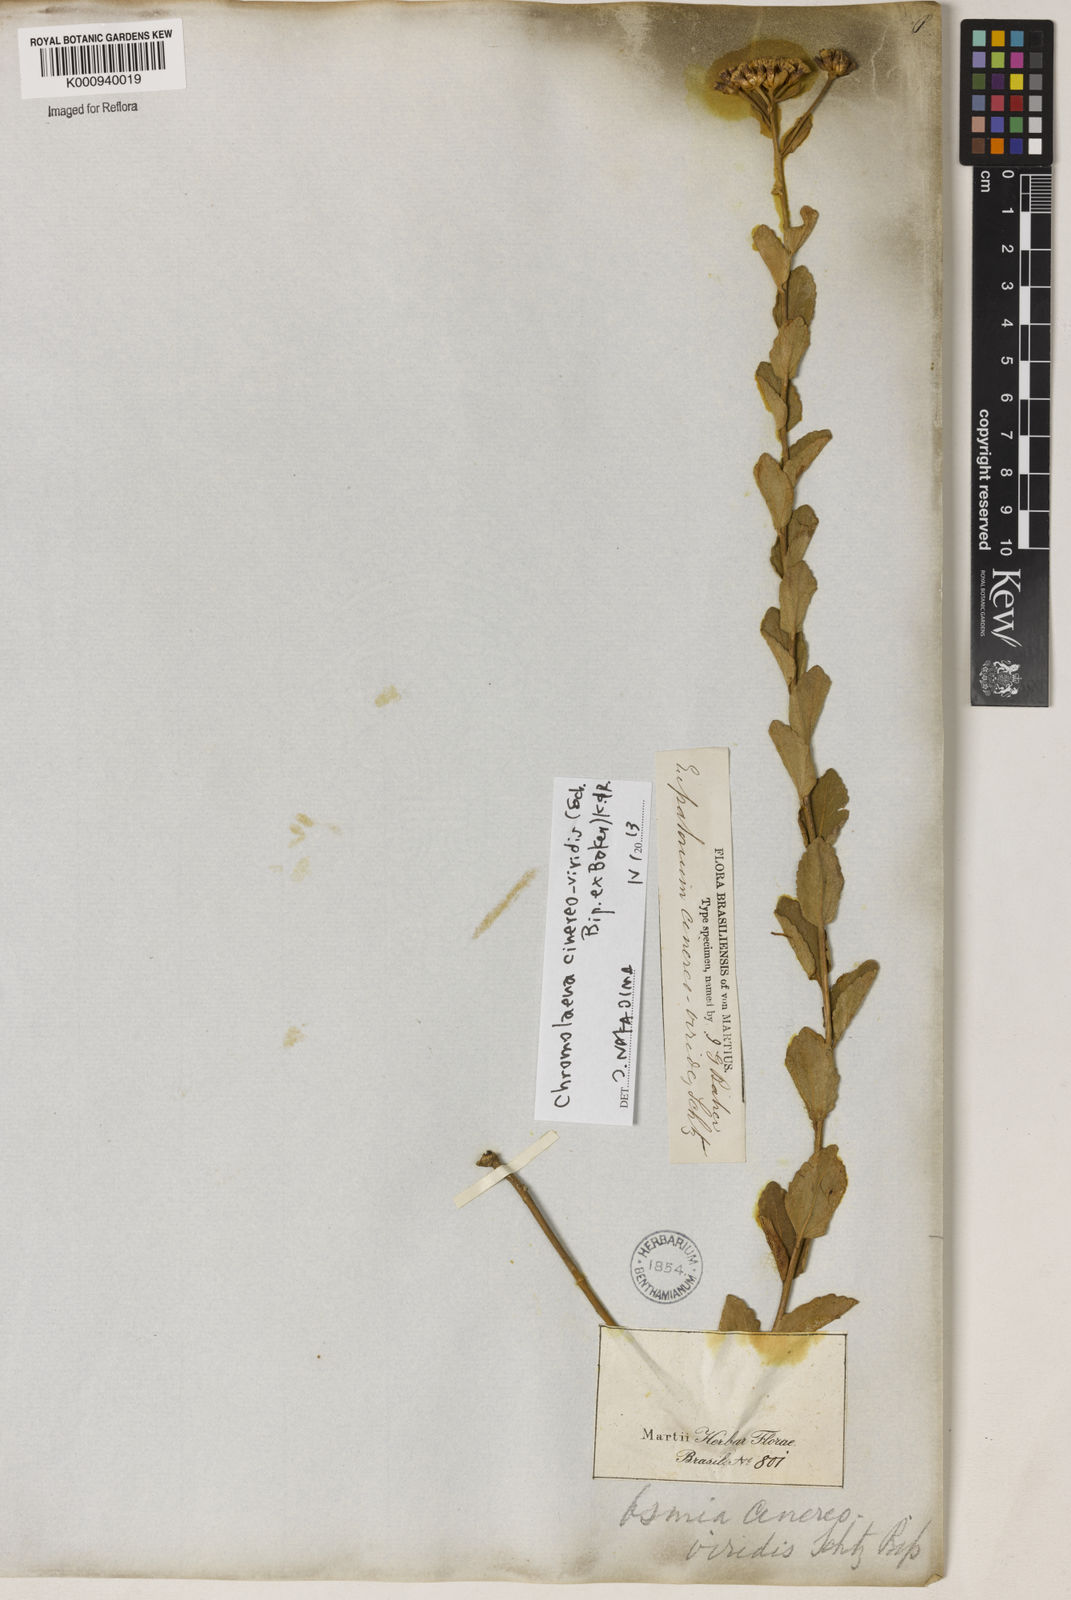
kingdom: Plantae
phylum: Tracheophyta
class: Magnoliopsida
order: Asterales
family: Asteraceae
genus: Chromolaena
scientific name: Chromolaena cinereoviridis
